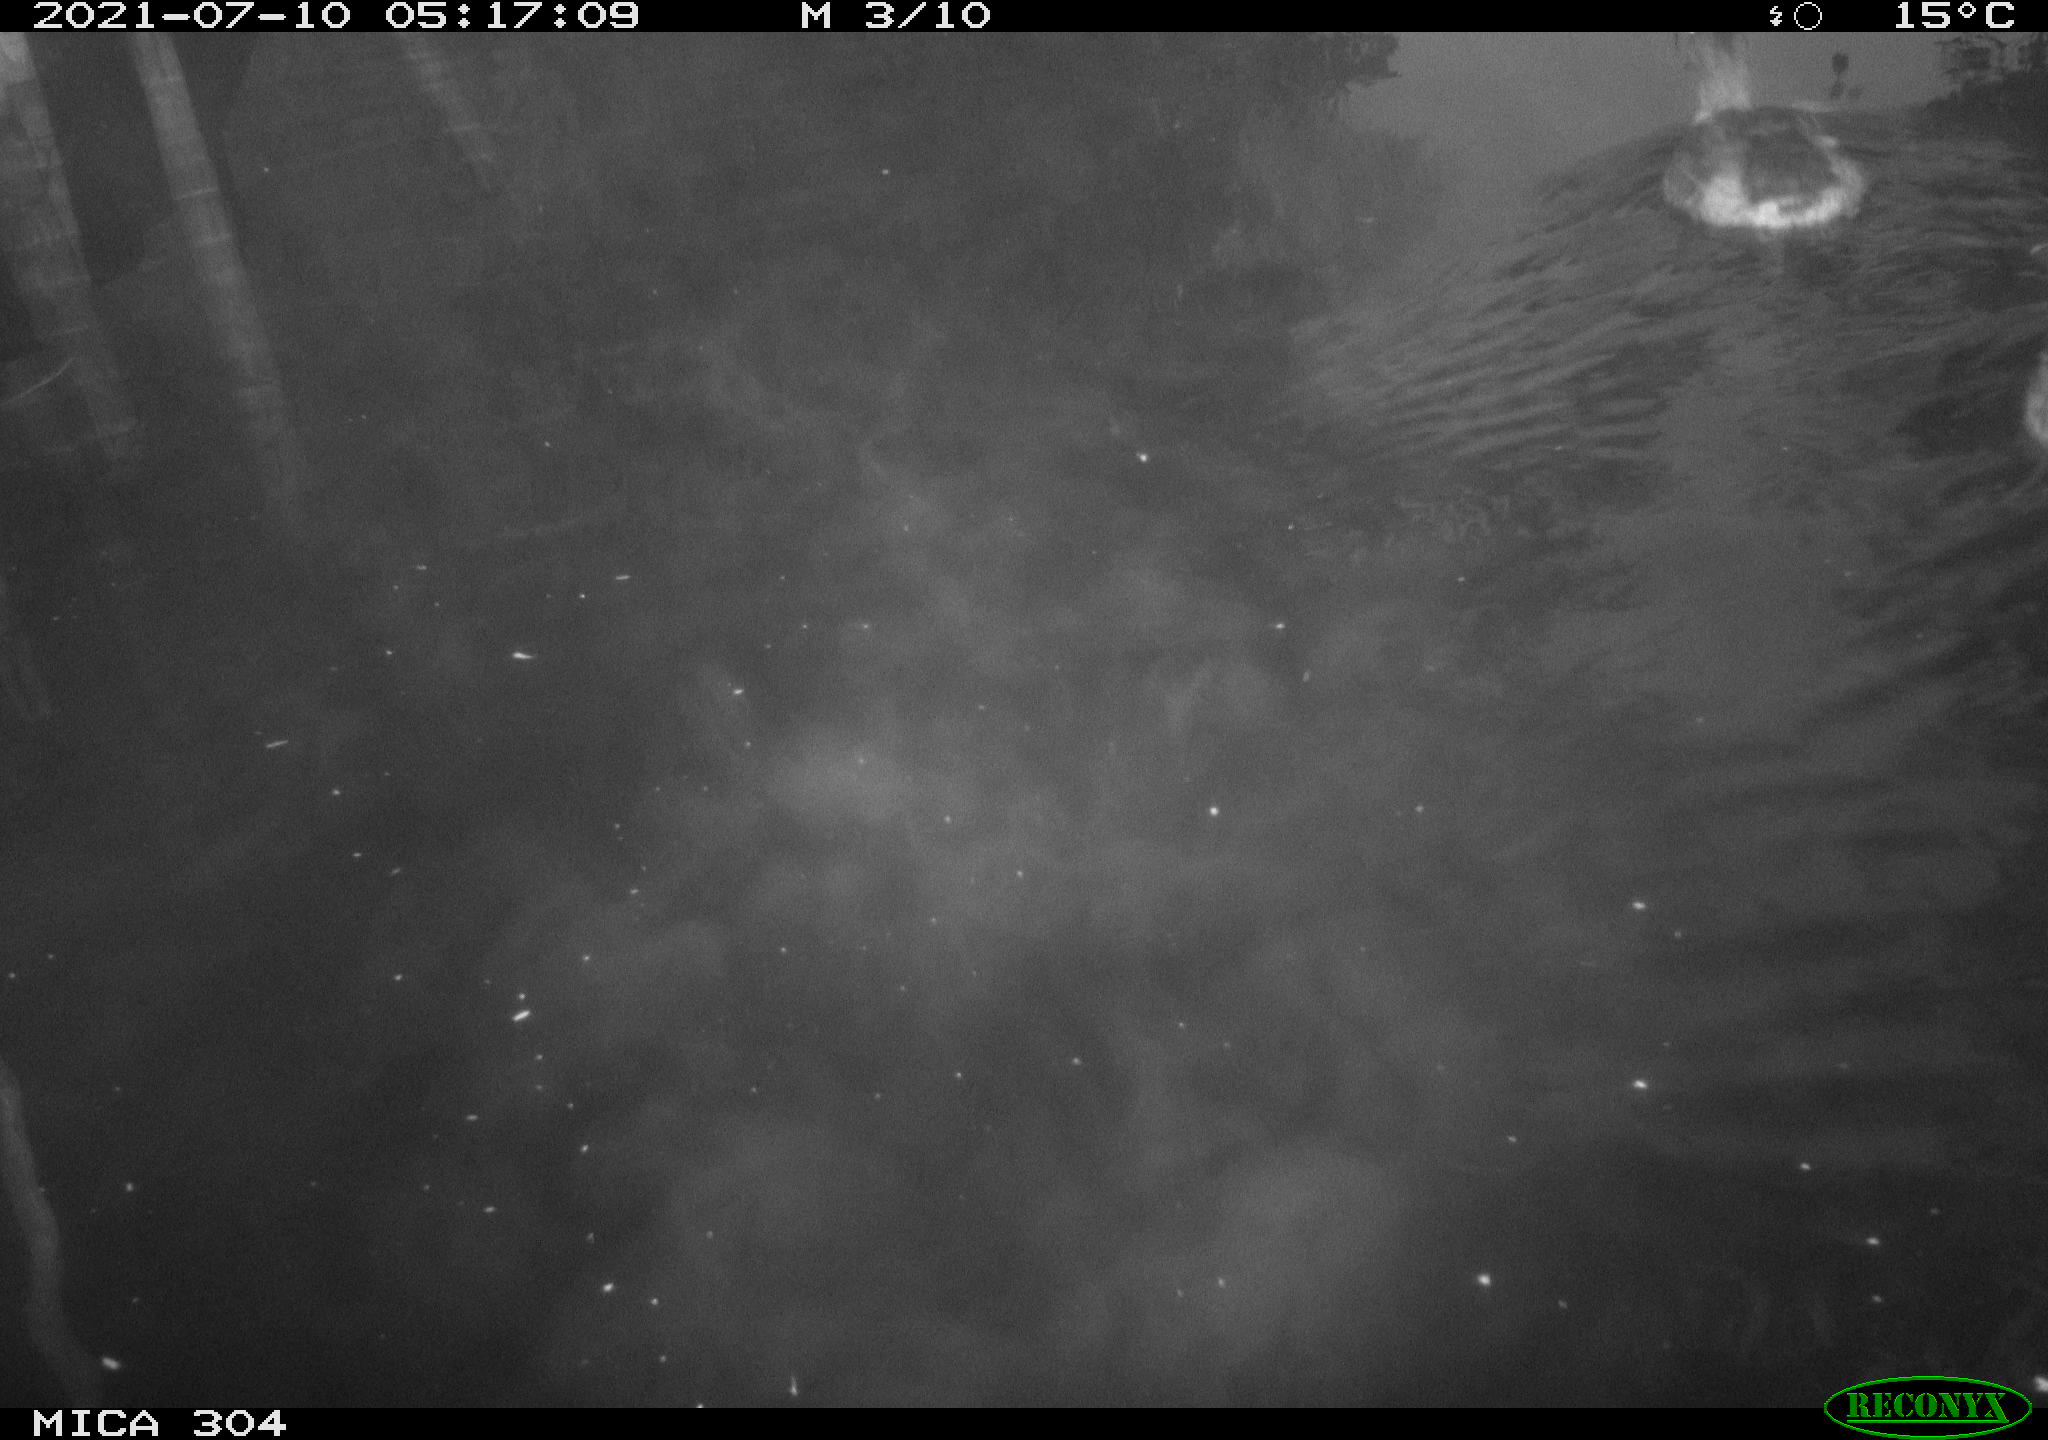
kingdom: Animalia
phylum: Chordata
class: Aves
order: Anseriformes
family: Anatidae
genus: Anas
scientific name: Anas platyrhynchos
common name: Mallard
